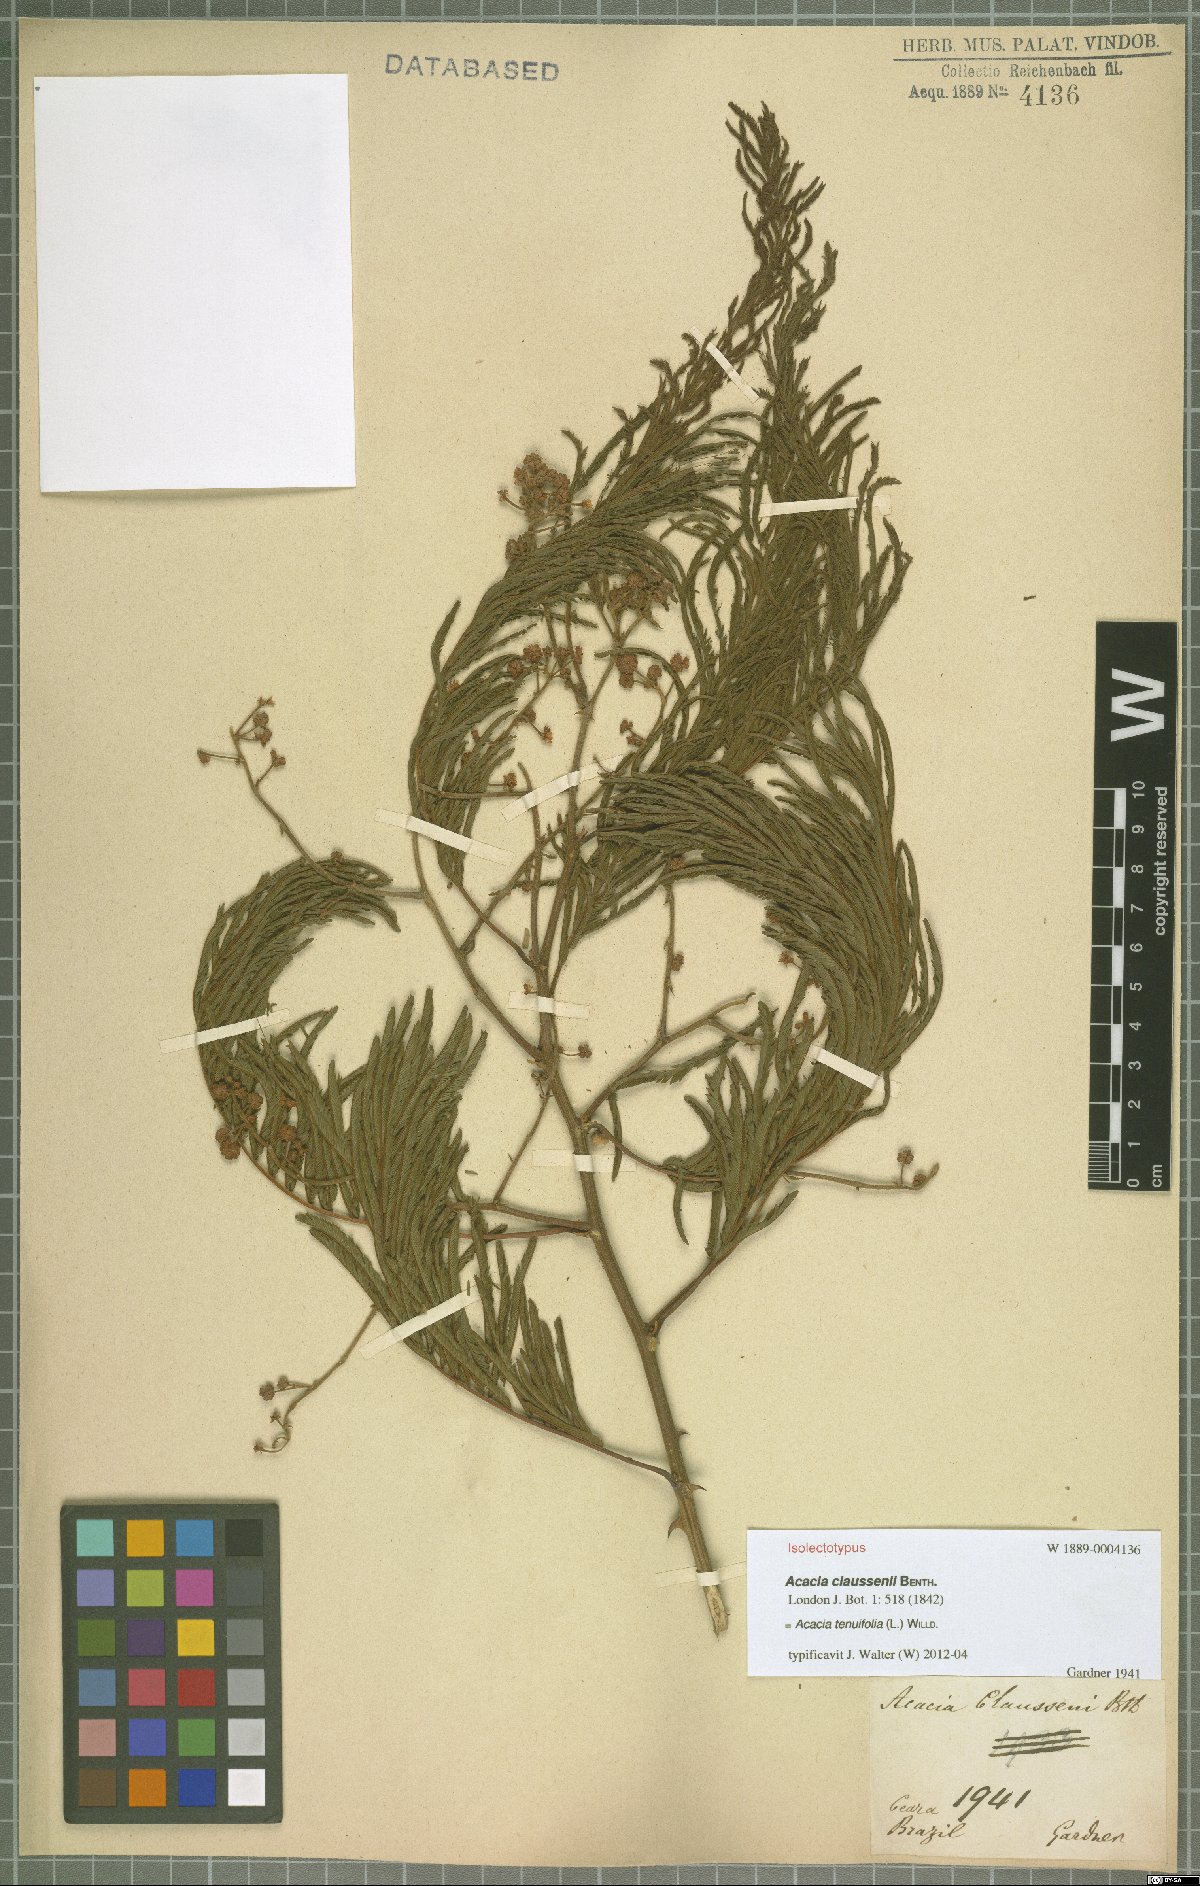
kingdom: Plantae
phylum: Tracheophyta
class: Magnoliopsida
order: Fabales
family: Fabaceae
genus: Senegalia
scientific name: Senegalia tenuifolia
